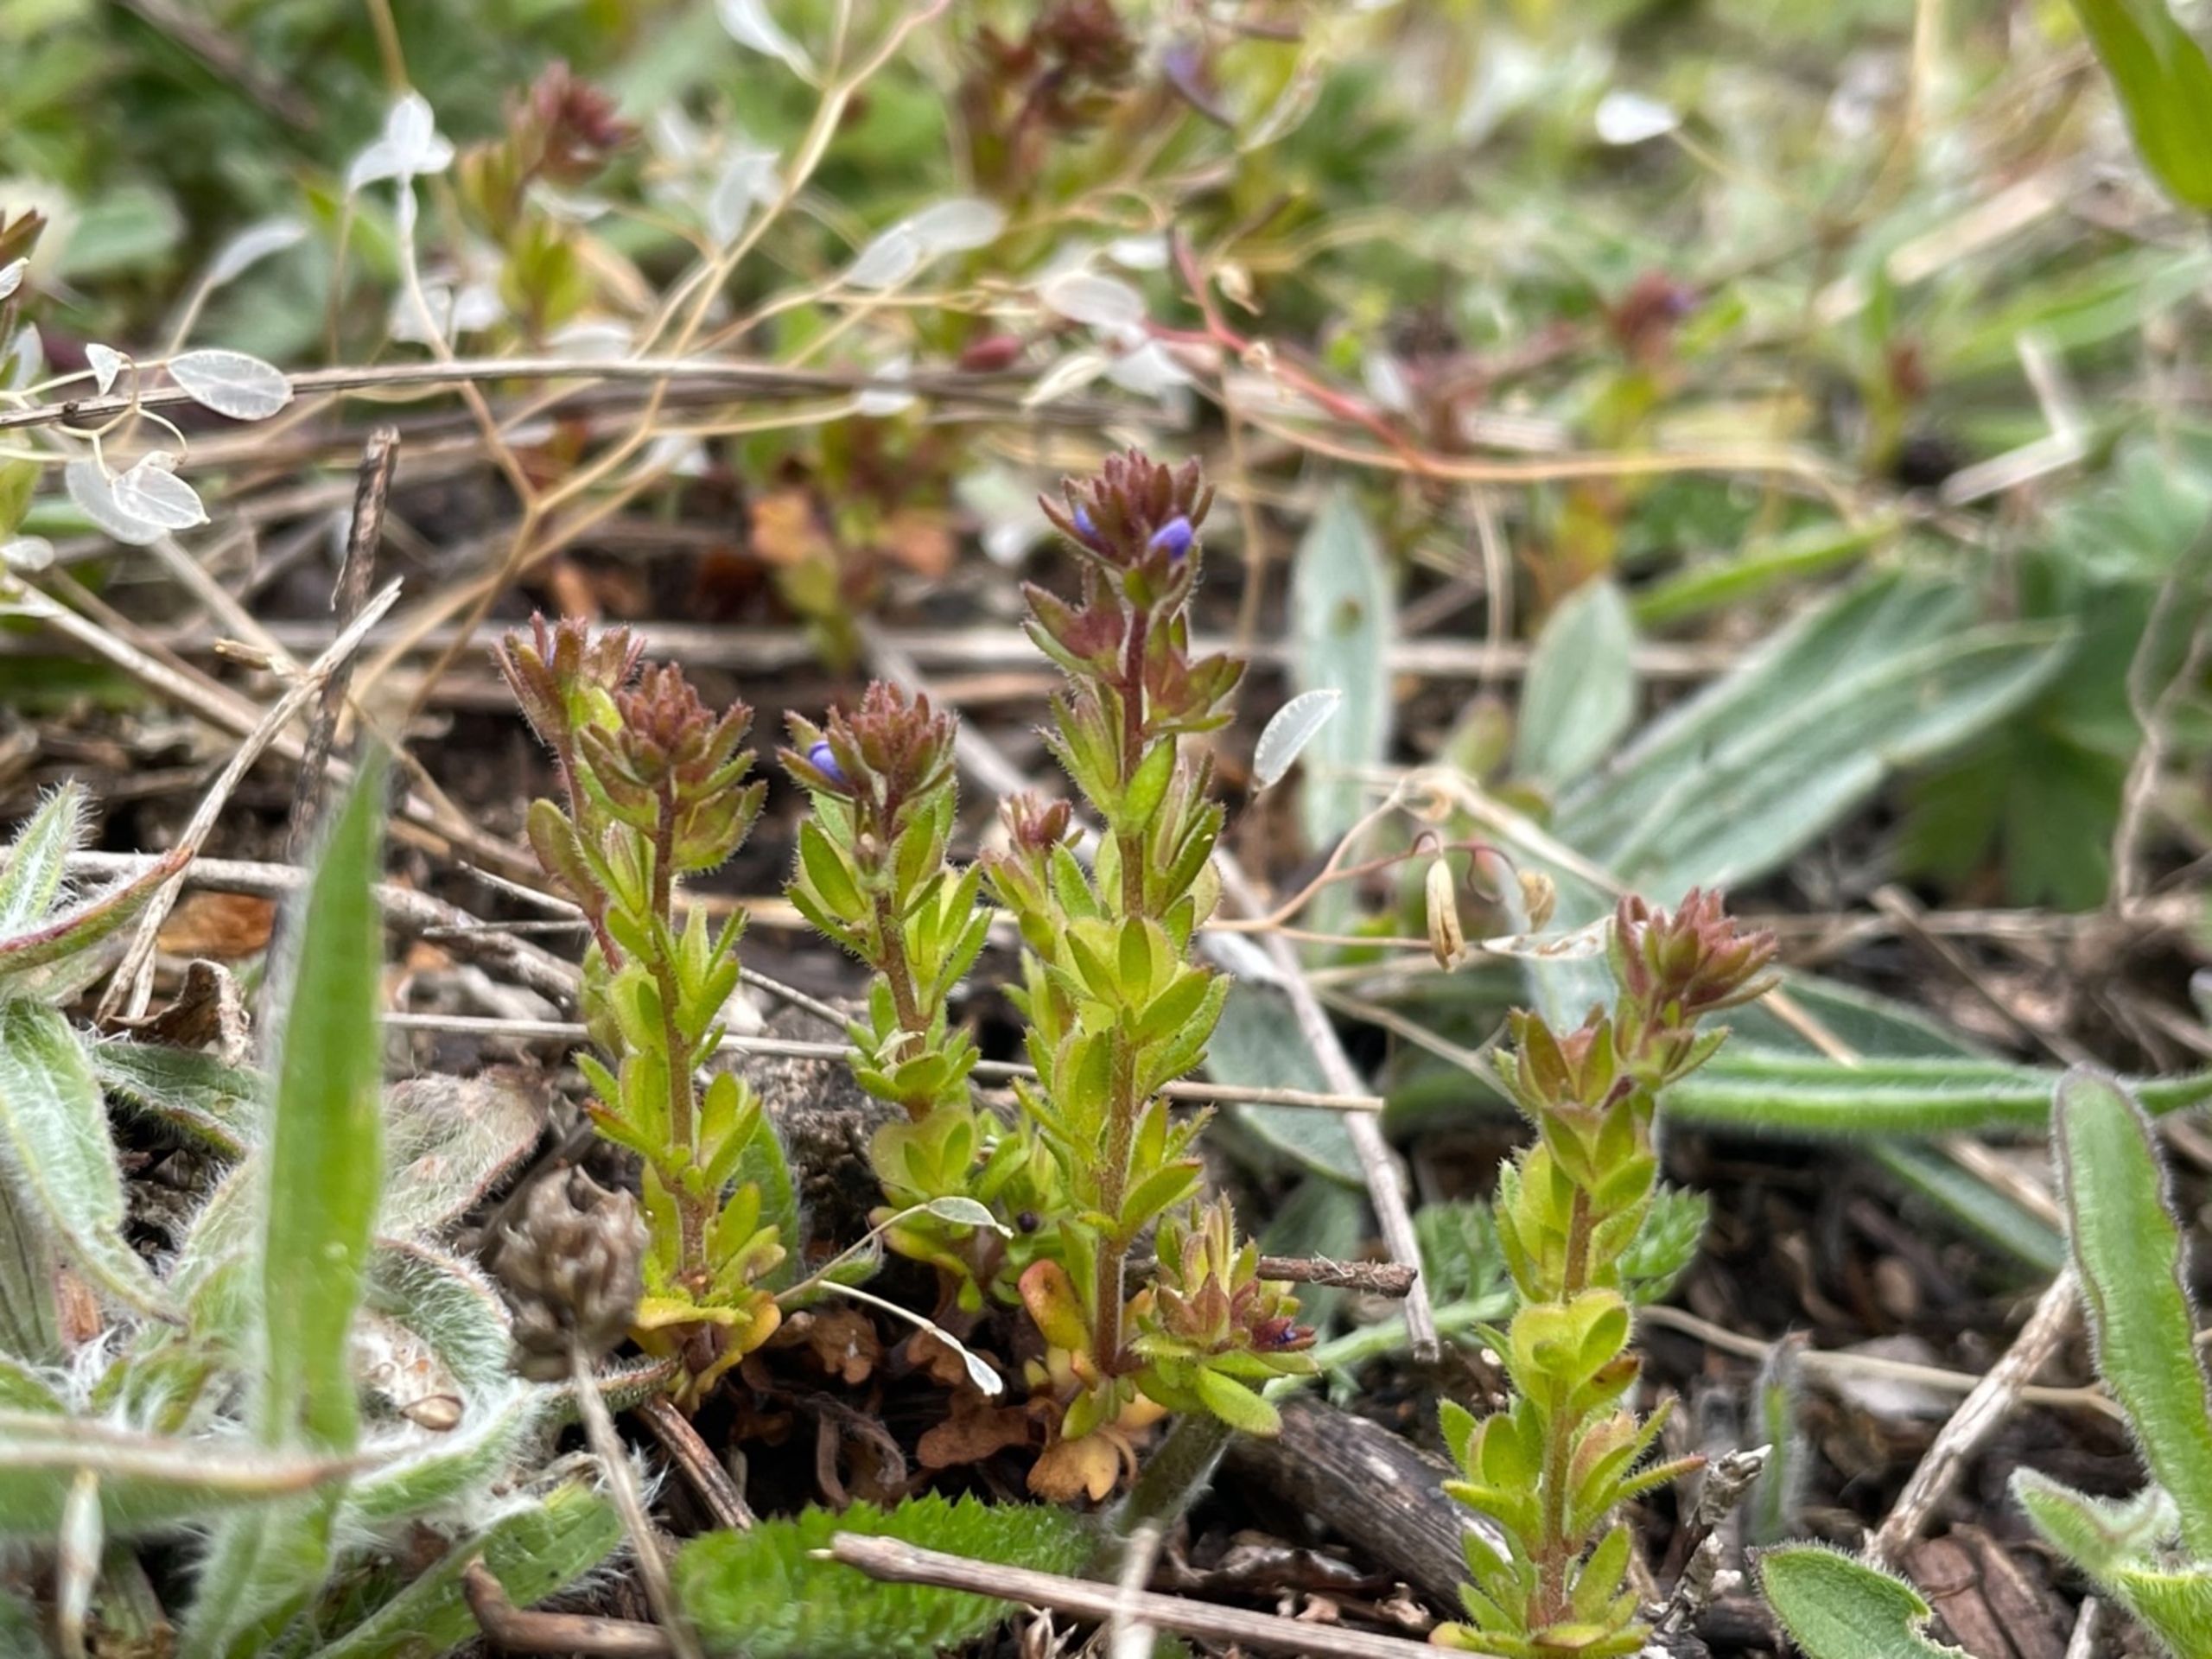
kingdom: Plantae
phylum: Tracheophyta
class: Magnoliopsida
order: Lamiales
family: Plantaginaceae
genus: Veronica
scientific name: Veronica verna
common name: Vår-ærenpris
